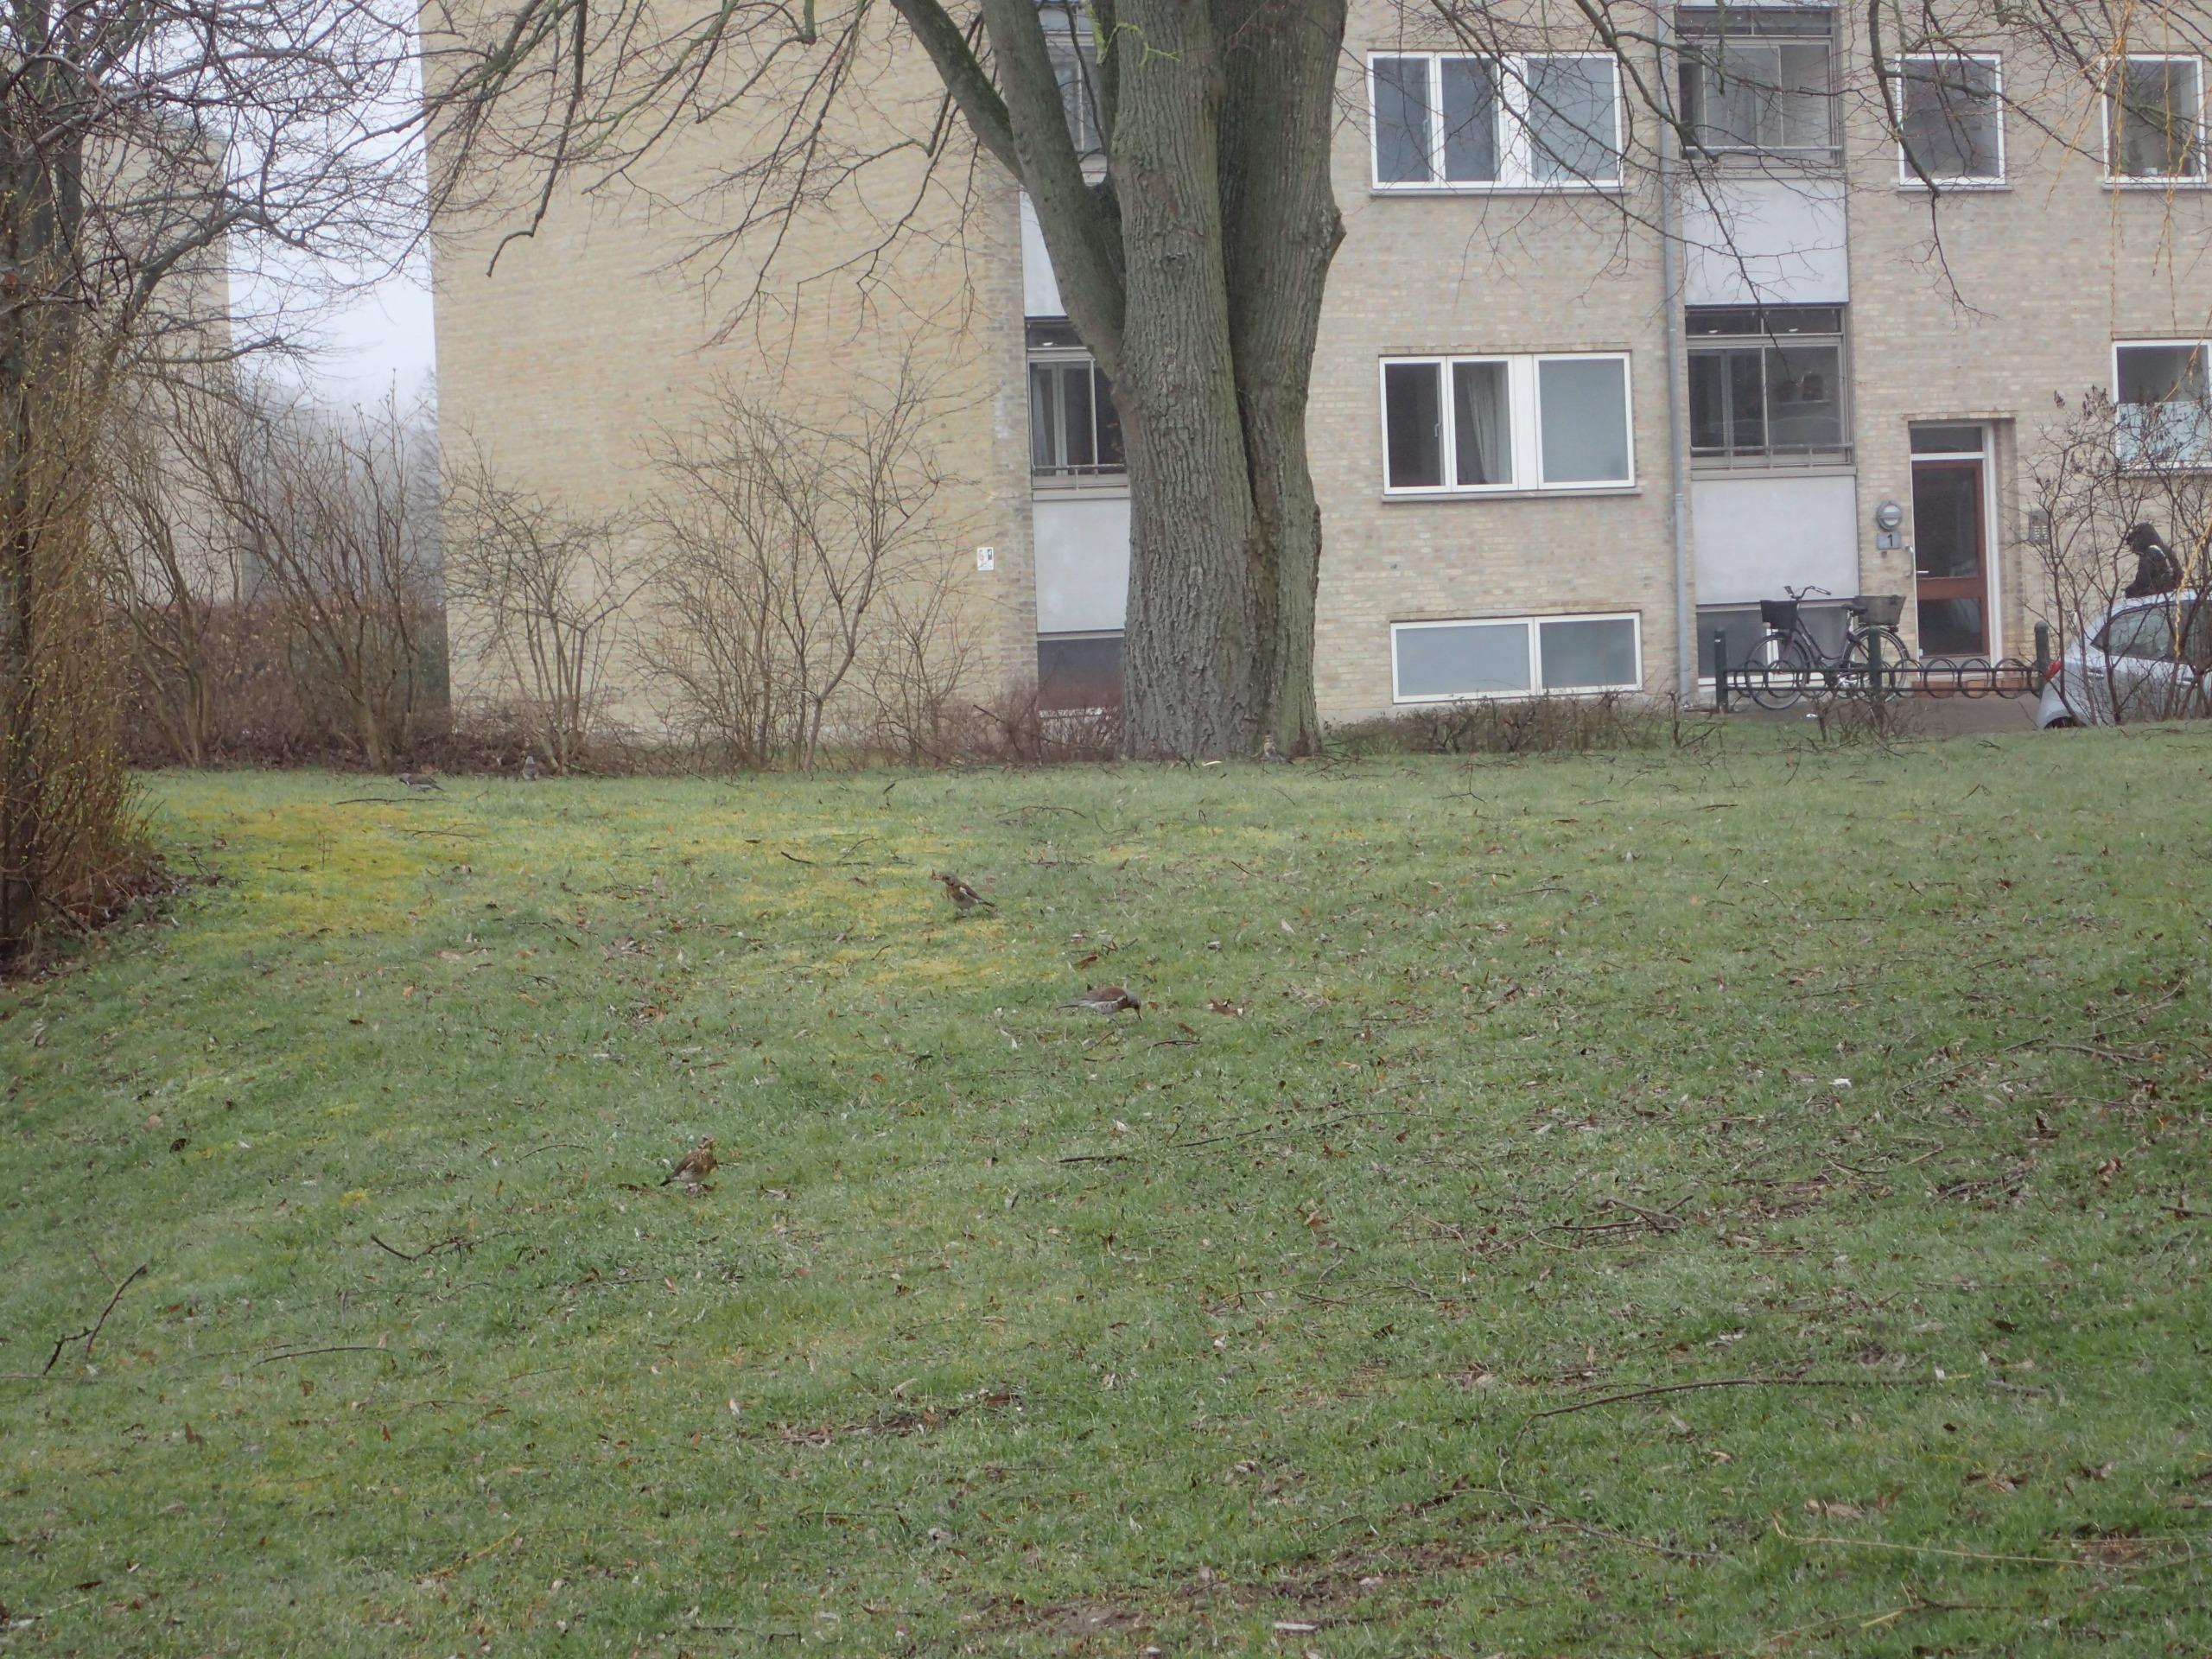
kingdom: Animalia
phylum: Chordata
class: Aves
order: Passeriformes
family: Turdidae
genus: Turdus
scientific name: Turdus pilaris
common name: Sjagger
